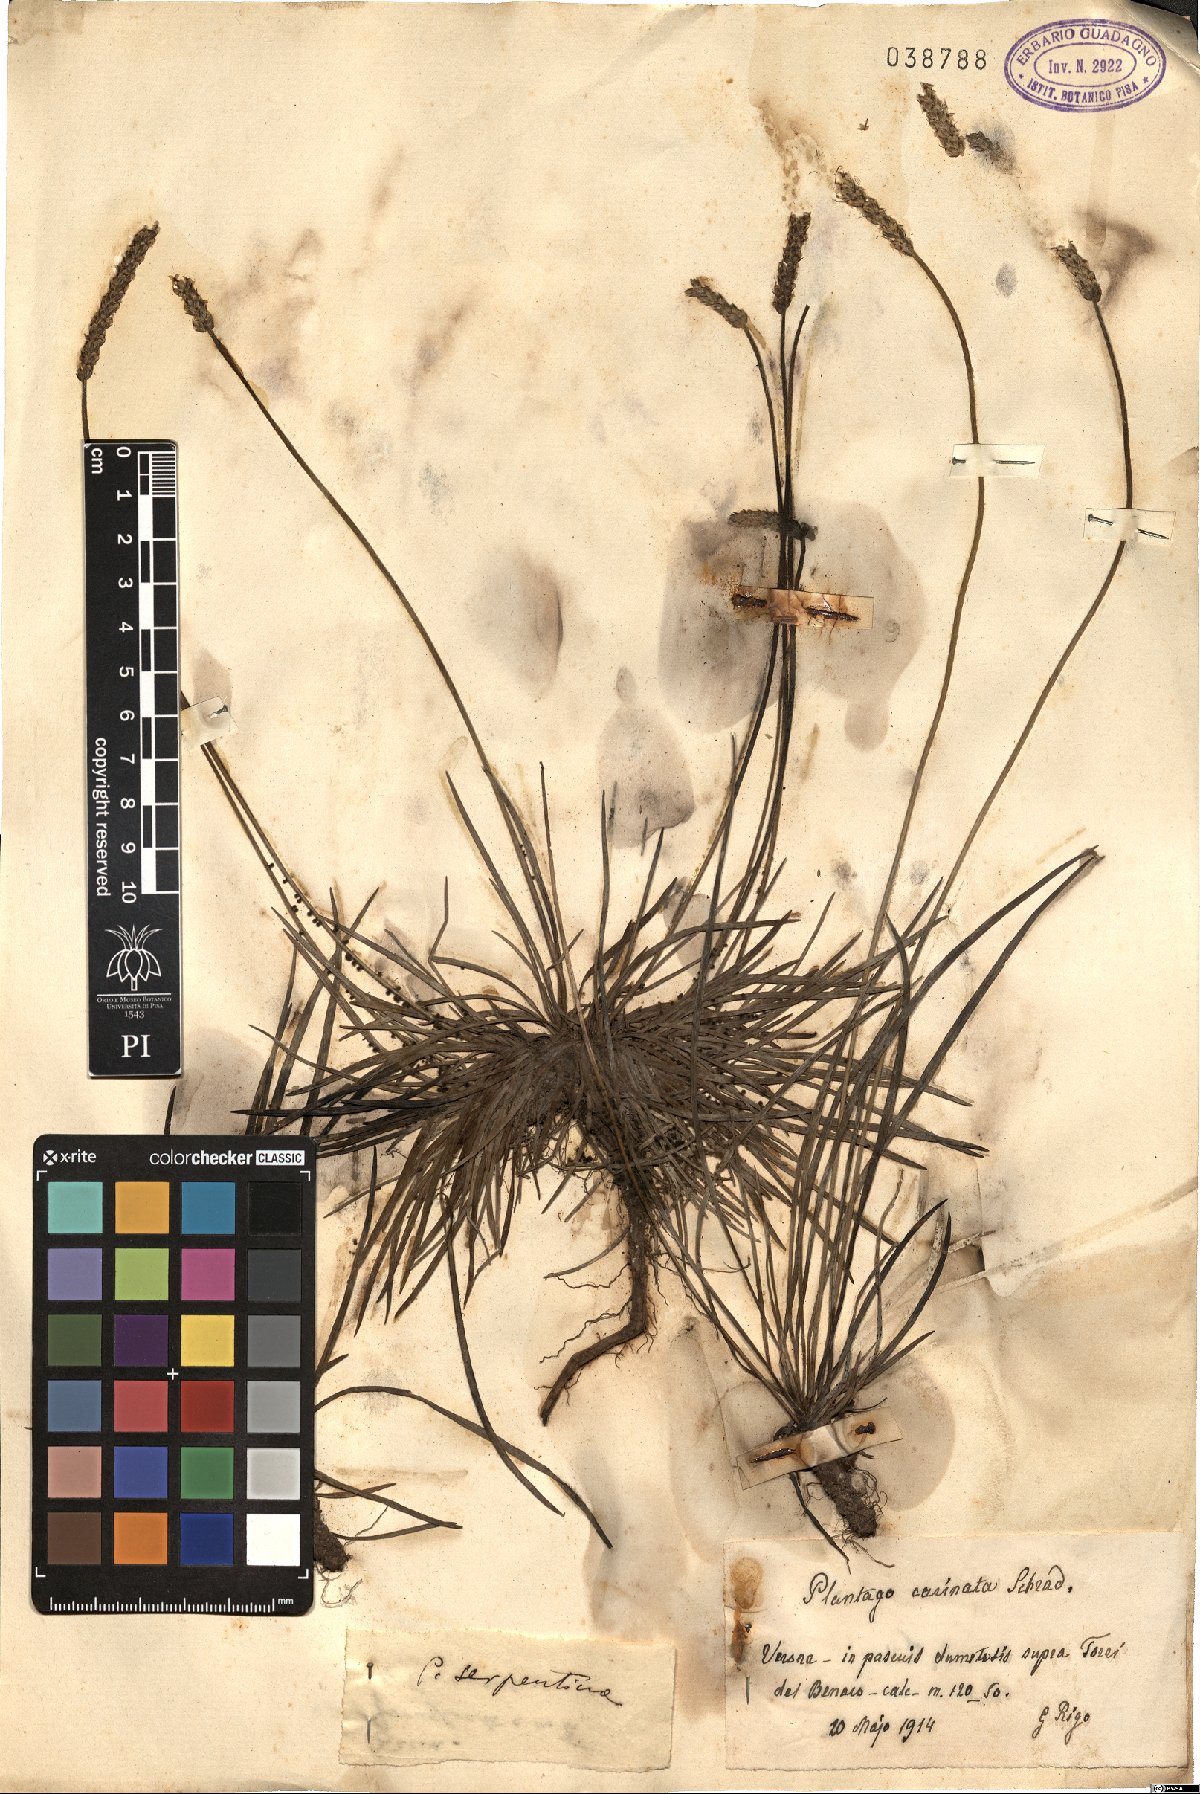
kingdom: Plantae
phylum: Tracheophyta
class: Magnoliopsida
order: Lamiales
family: Plantaginaceae
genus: Plantago
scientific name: Plantago subulata
